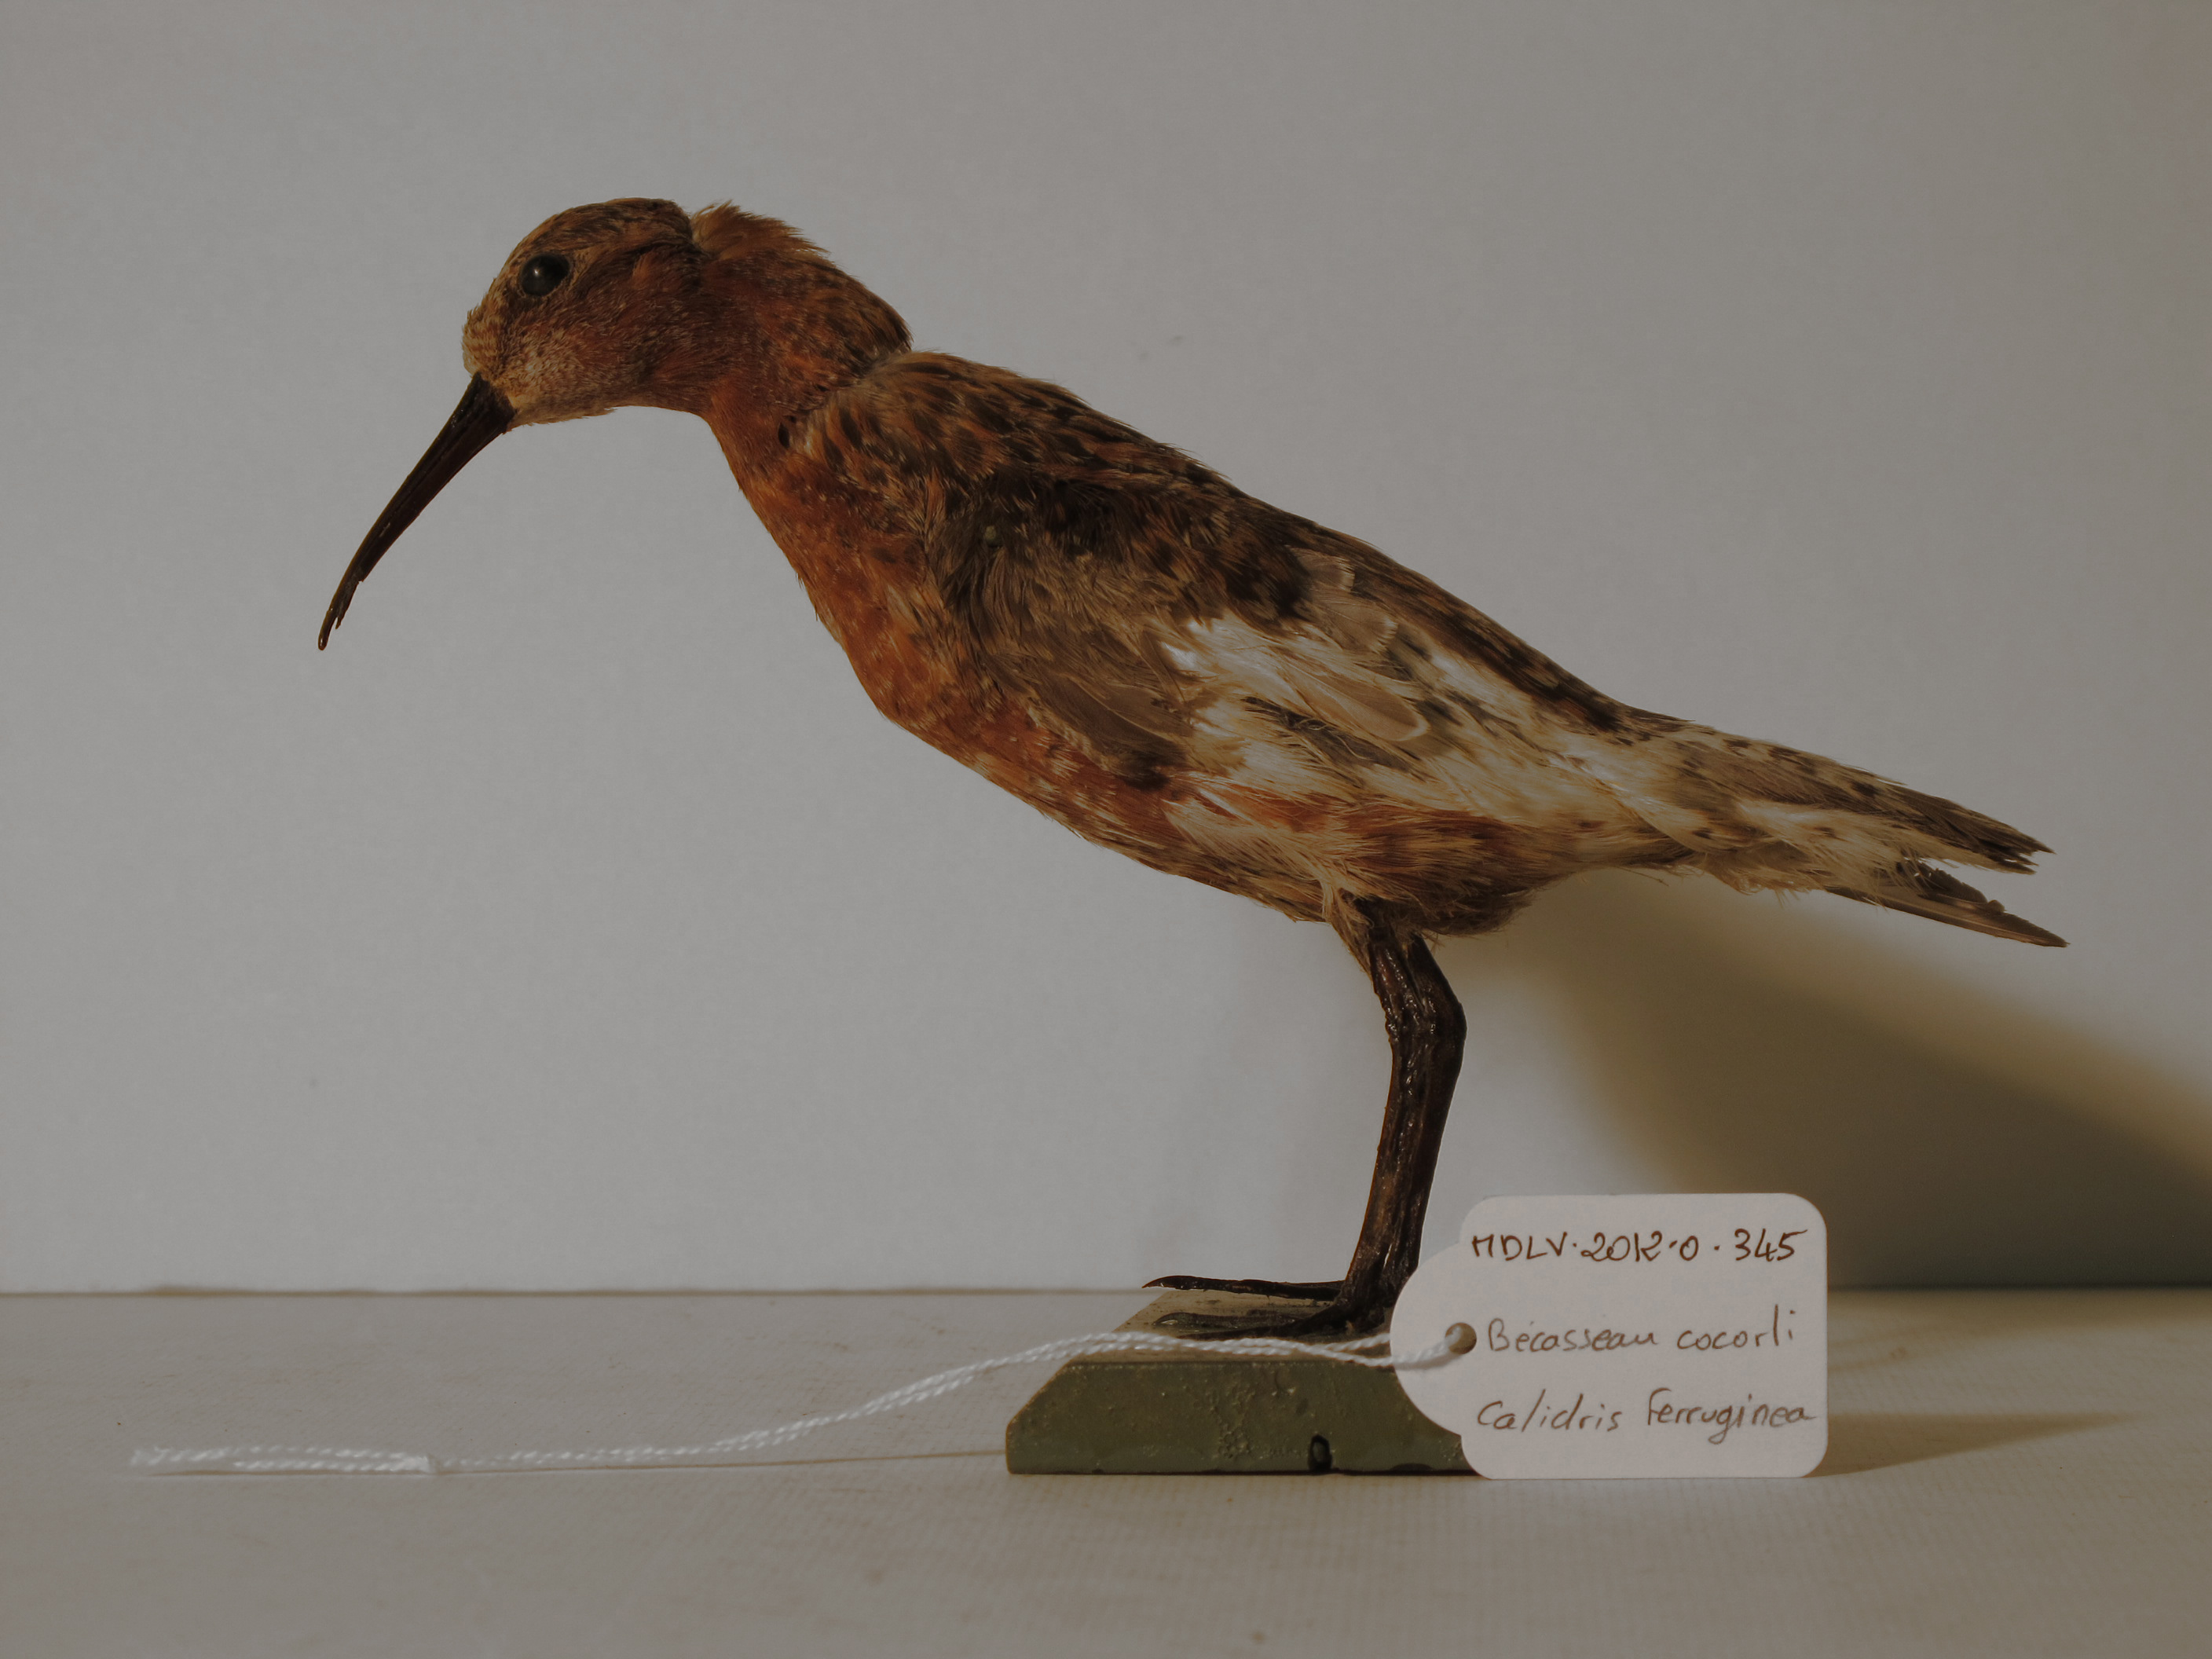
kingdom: Animalia
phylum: Chordata
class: Aves
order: Charadriiformes
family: Scolopacidae
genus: Calidris
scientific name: Calidris ferruginea
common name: Curlew Sandpiper
